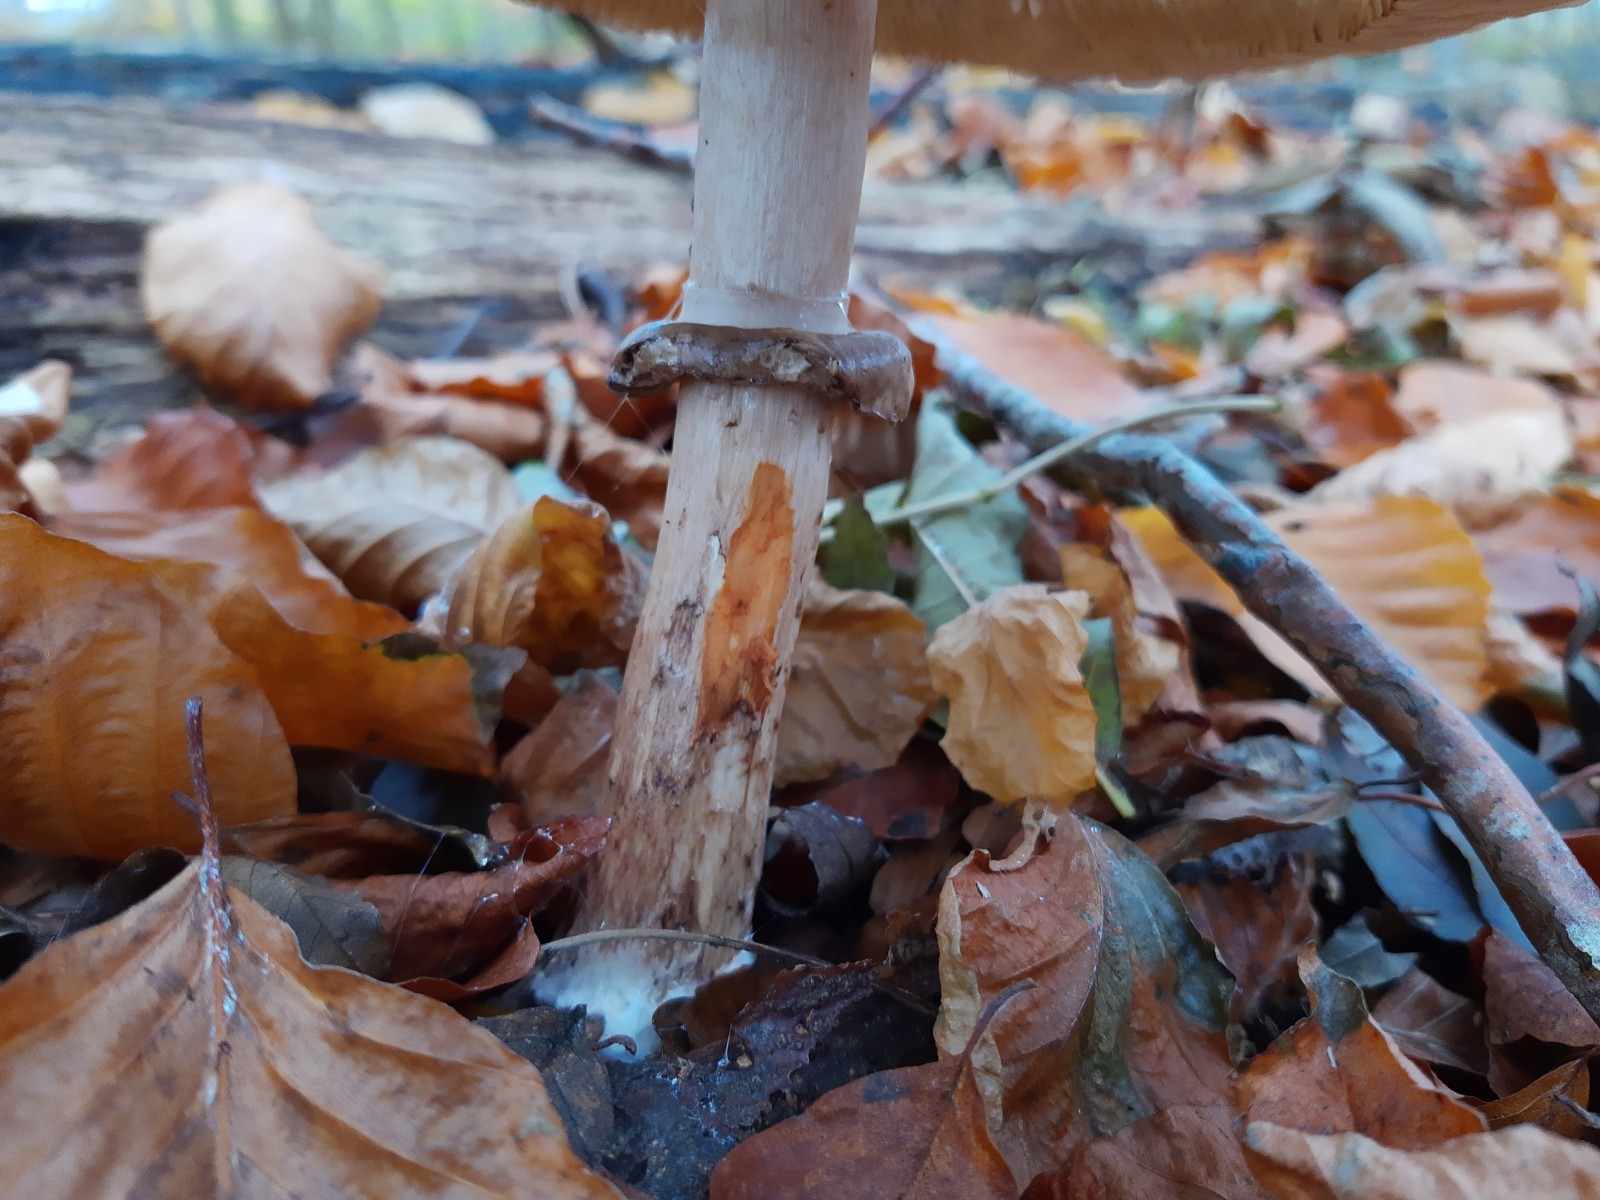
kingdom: Fungi
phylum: Basidiomycota
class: Agaricomycetes
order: Agaricales
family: Agaricaceae
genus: Chlorophyllum
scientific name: Chlorophyllum olivieri
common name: almindelig rabarberhat
